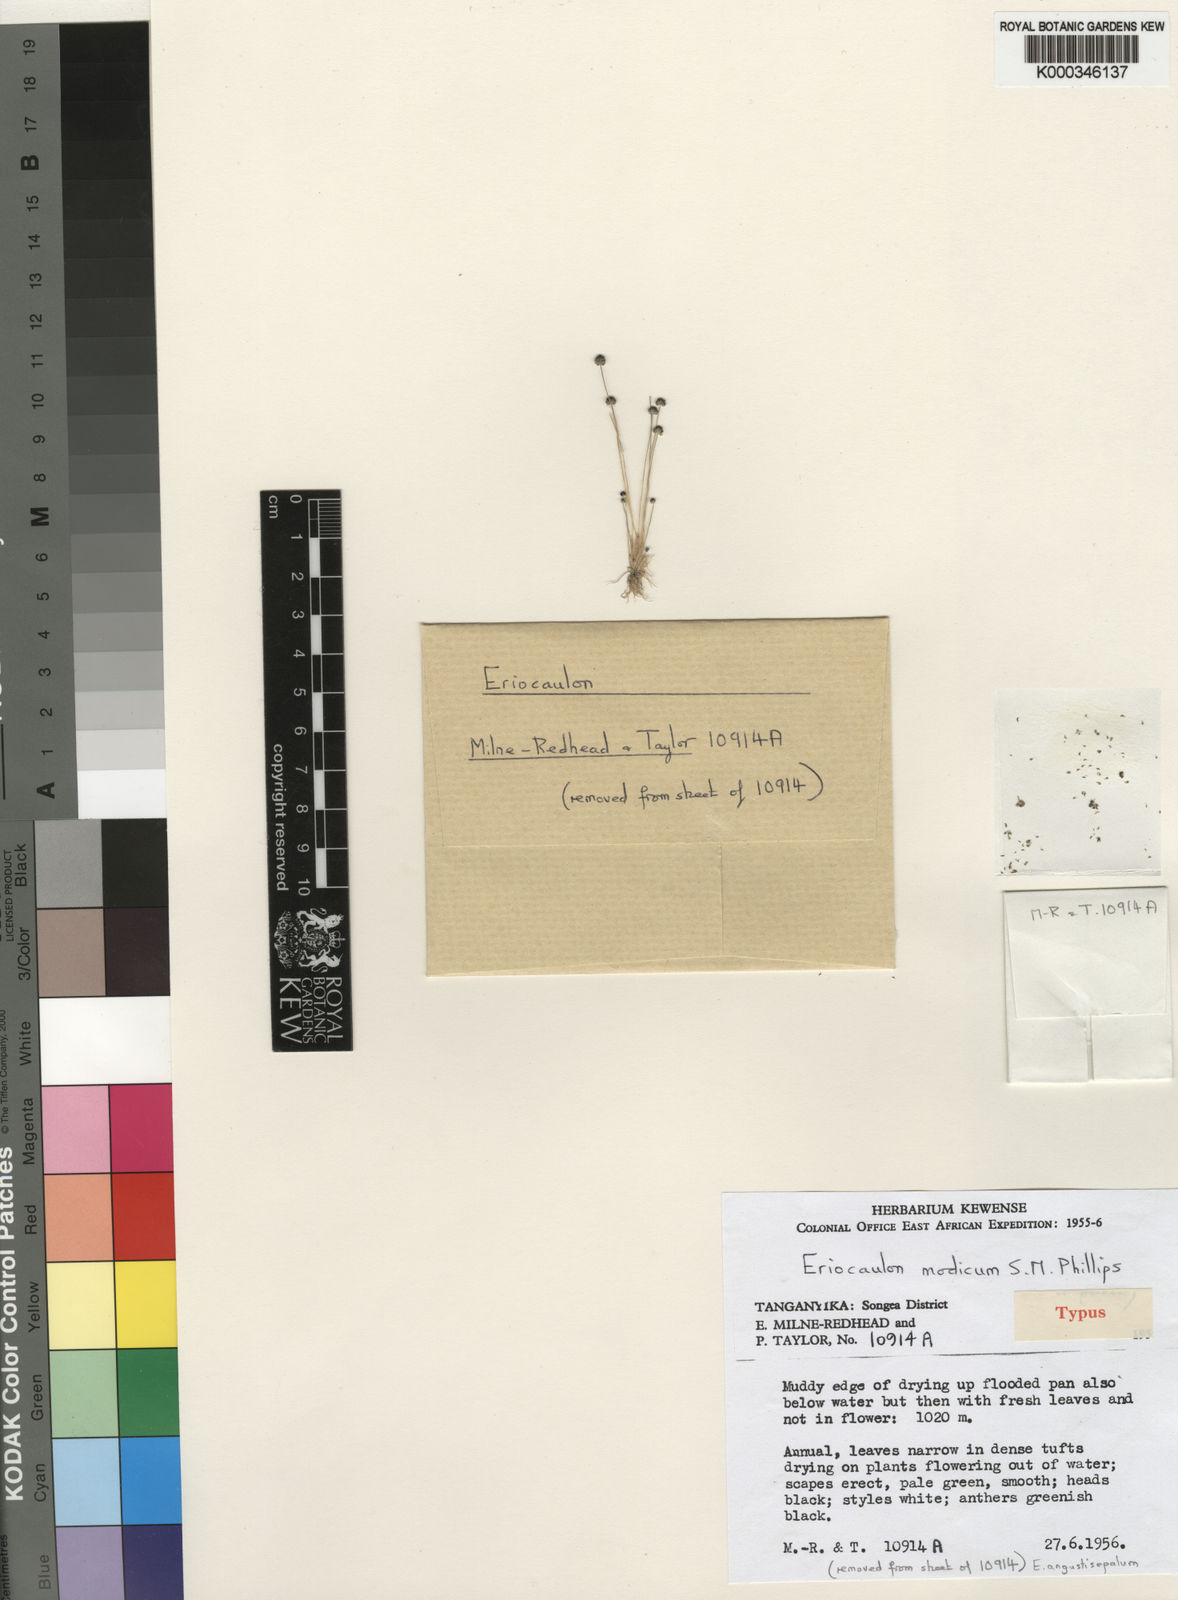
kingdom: Plantae
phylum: Tracheophyta
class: Liliopsida
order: Poales
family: Eriocaulaceae
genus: Eriocaulon
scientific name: Eriocaulon modicum
